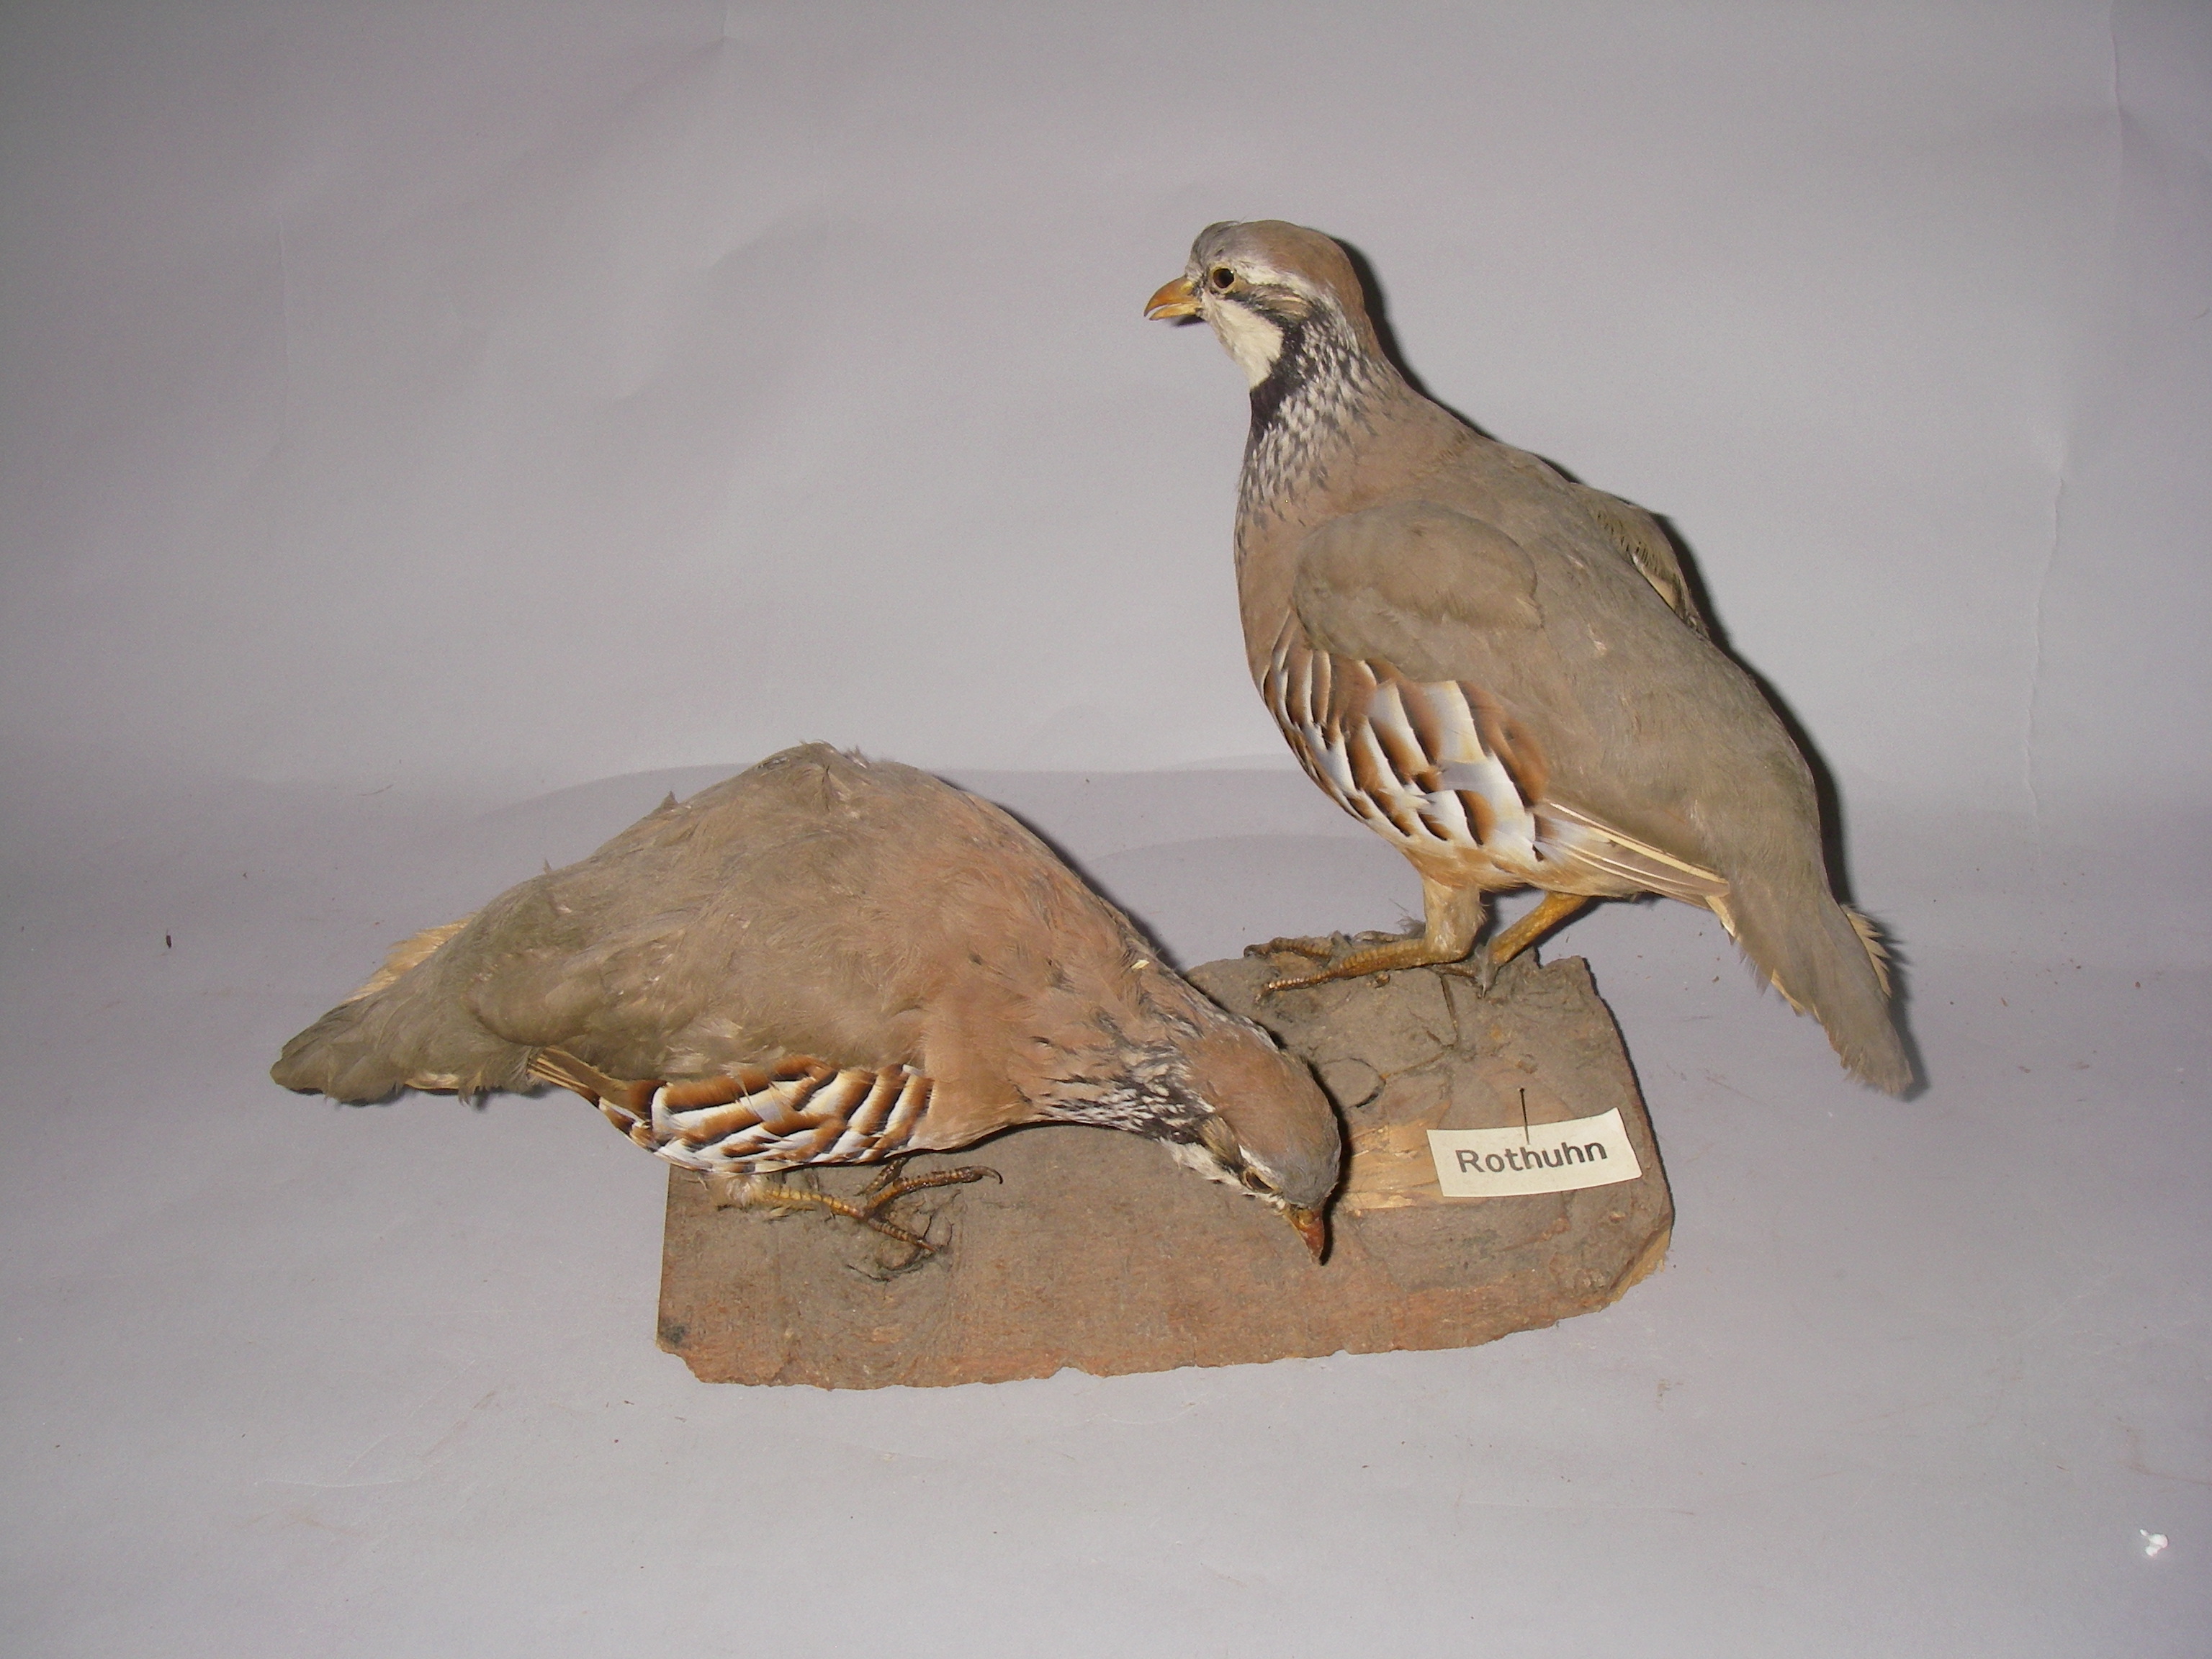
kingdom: Animalia
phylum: Chordata
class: Aves
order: Galliformes
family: Phasianidae
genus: Alectoris
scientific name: Alectoris rufa
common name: Red-legged partridge
